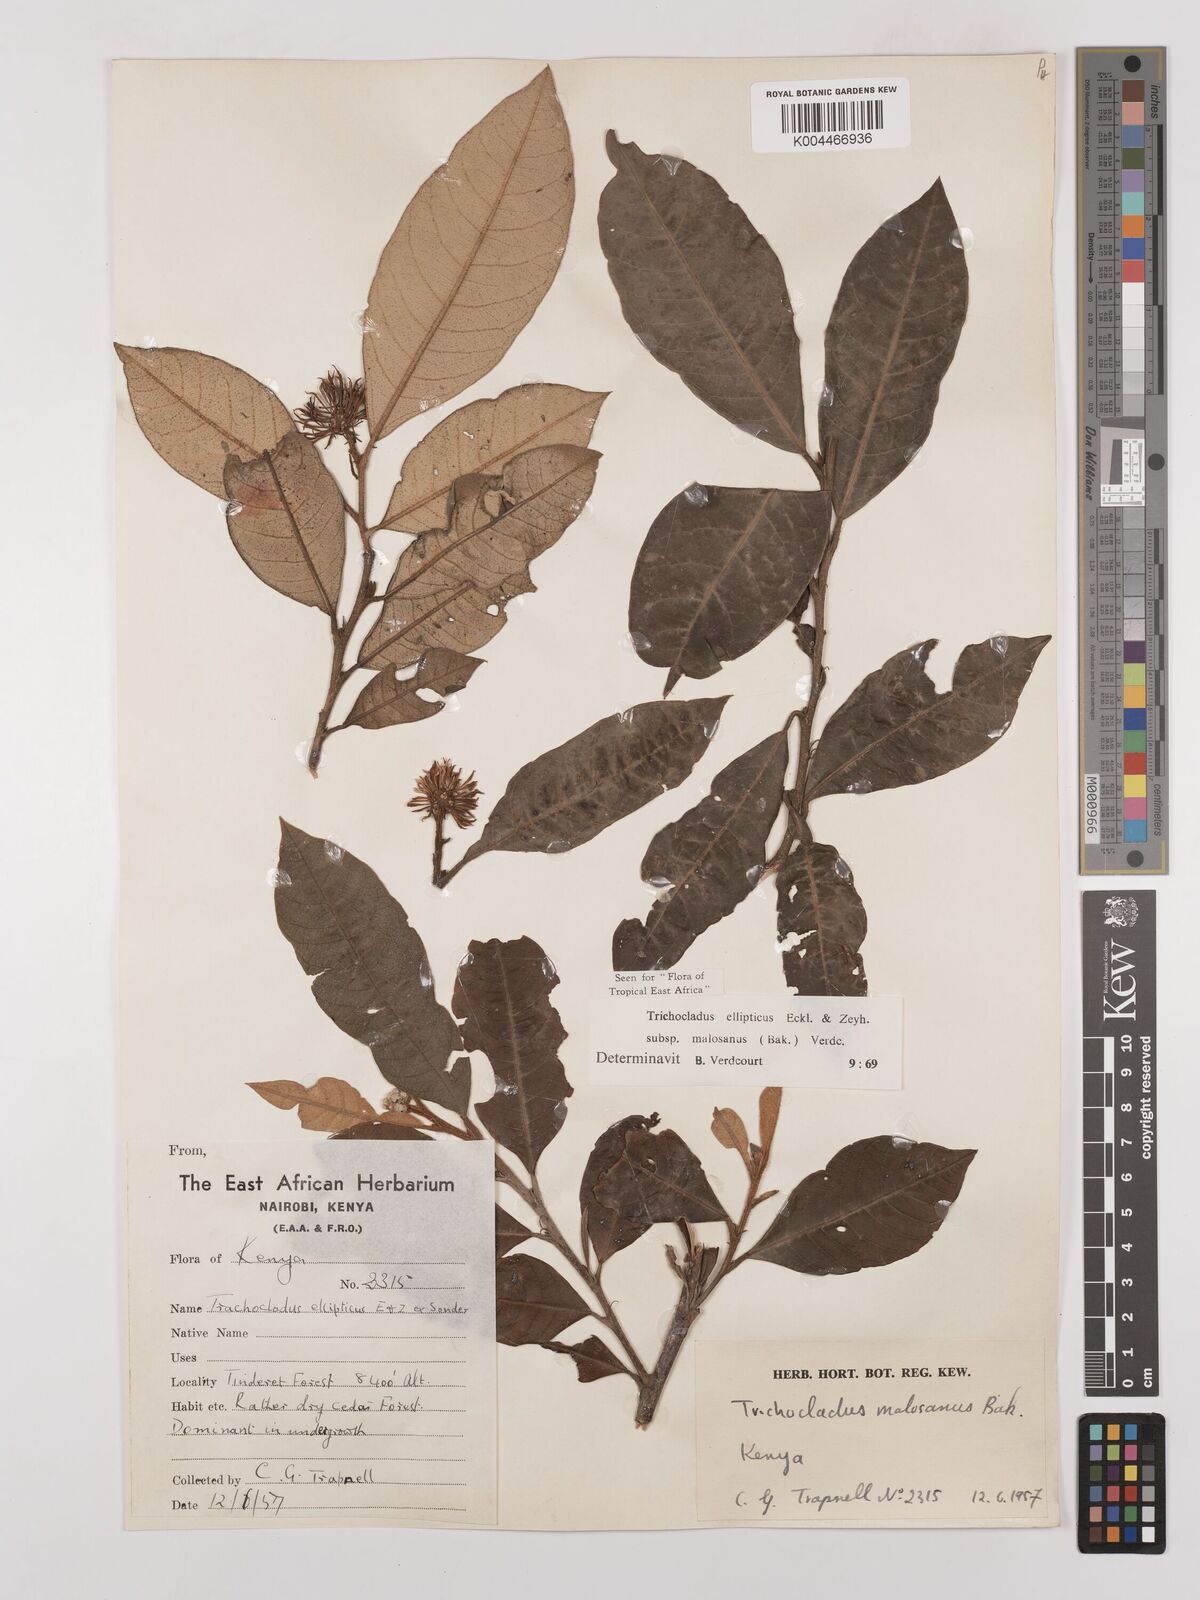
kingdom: Plantae
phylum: Tracheophyta
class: Magnoliopsida
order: Saxifragales
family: Hamamelidaceae
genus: Trichocladus
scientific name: Trichocladus ellipticus
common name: White witch-hazel
